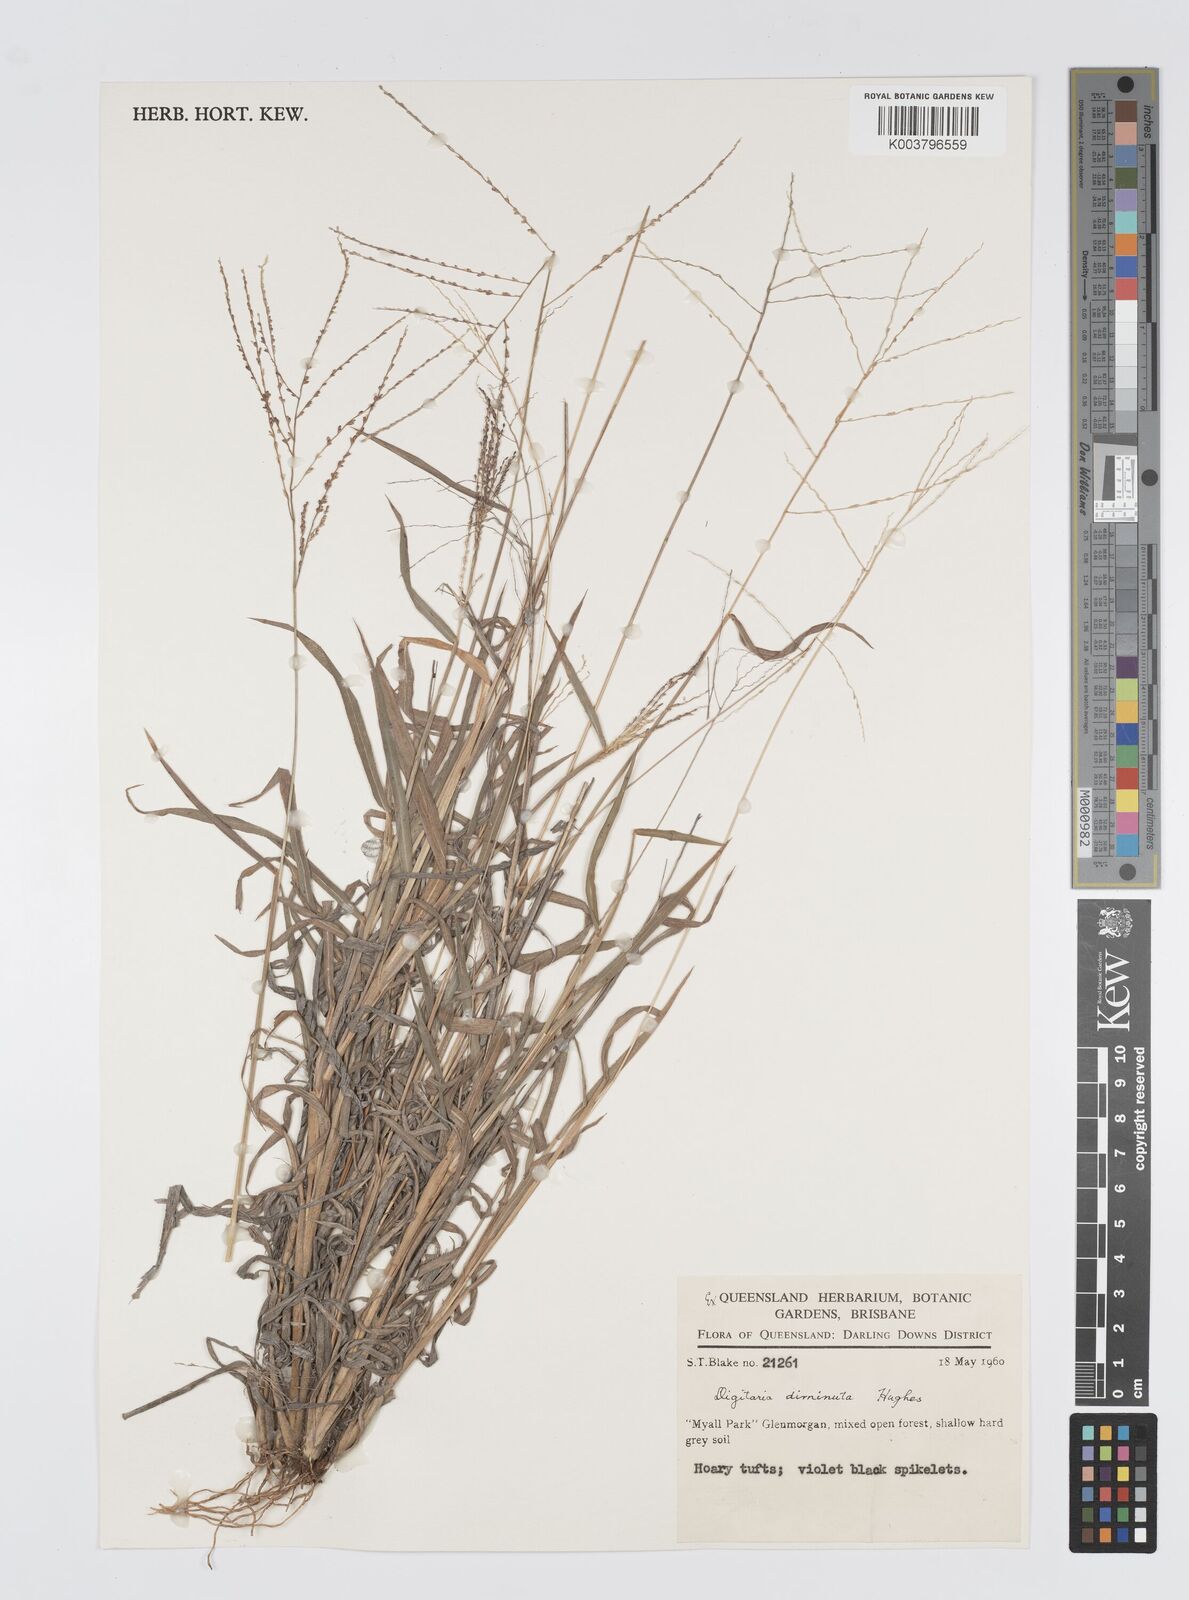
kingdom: Plantae
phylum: Tracheophyta
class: Liliopsida
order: Poales
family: Poaceae
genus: Digitaria
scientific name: Digitaria breviglumis
